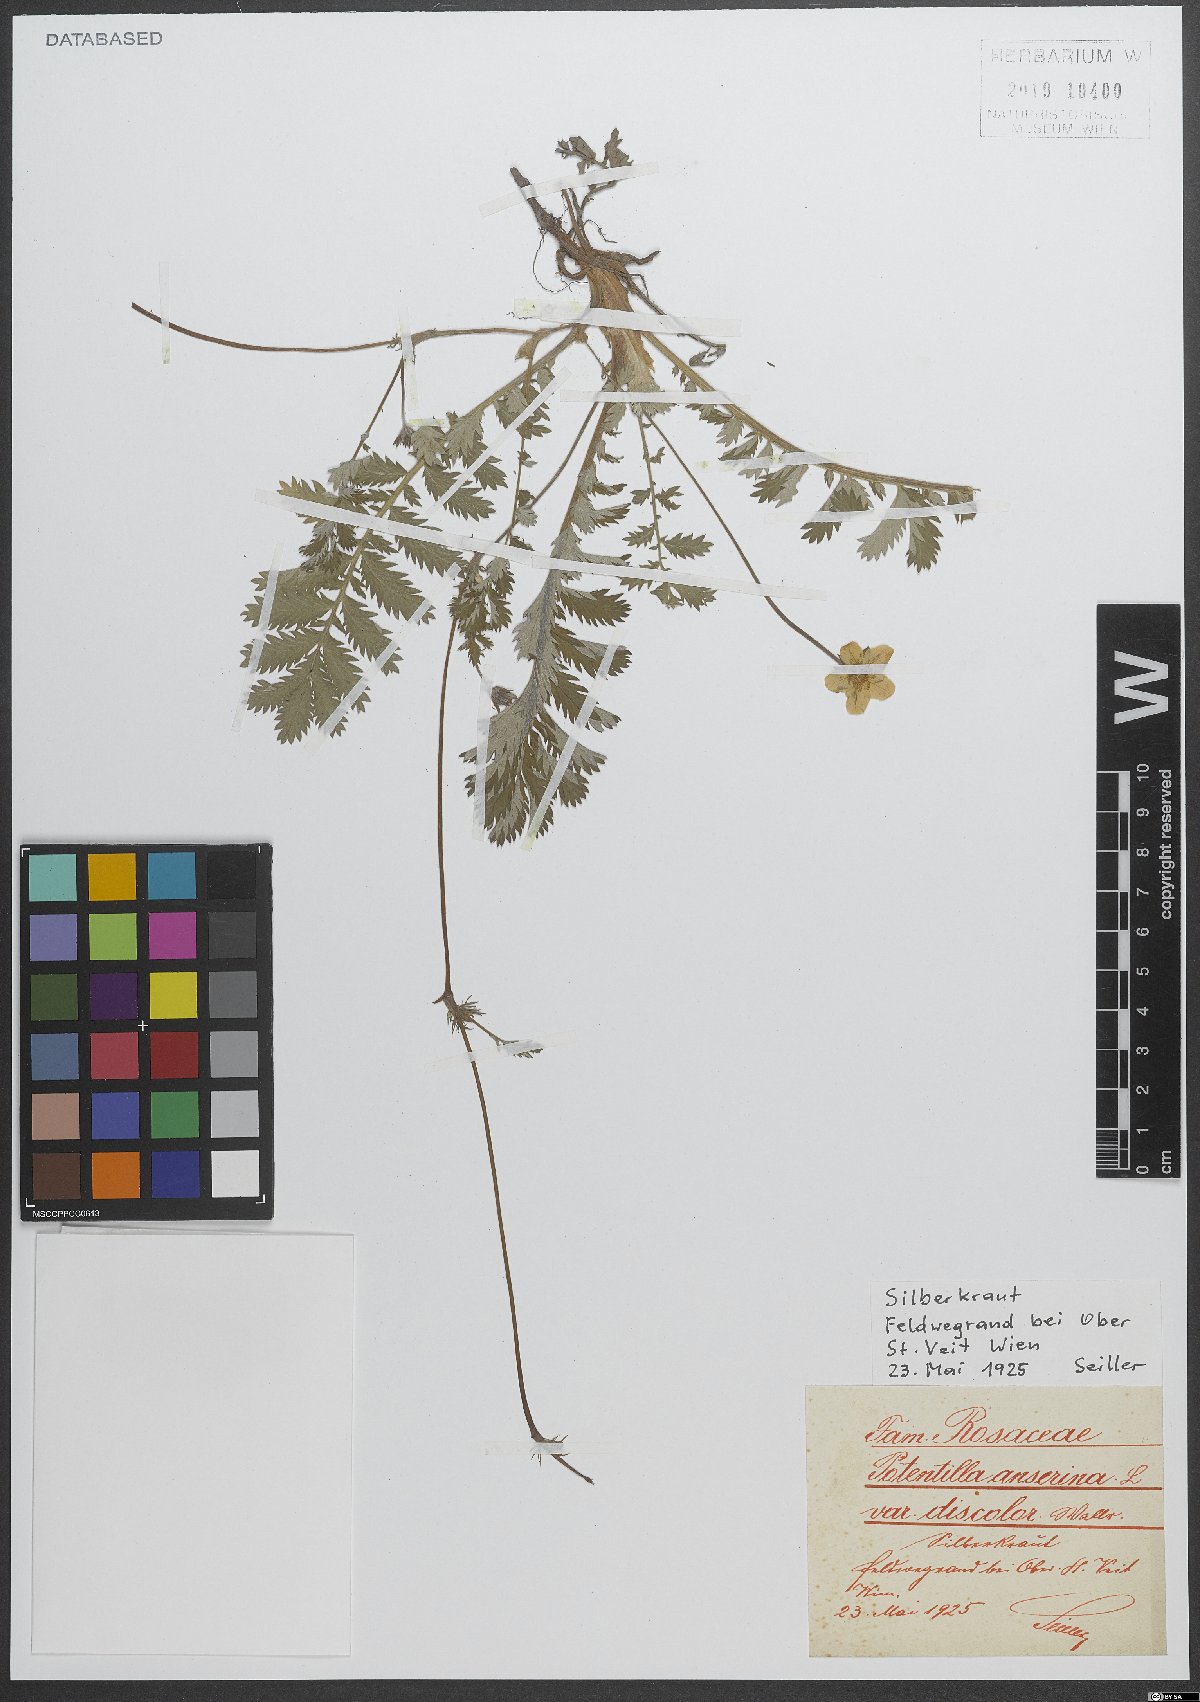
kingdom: Plantae
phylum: Tracheophyta
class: Magnoliopsida
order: Rosales
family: Rosaceae
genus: Argentina
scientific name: Argentina anserina
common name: Common silverweed
